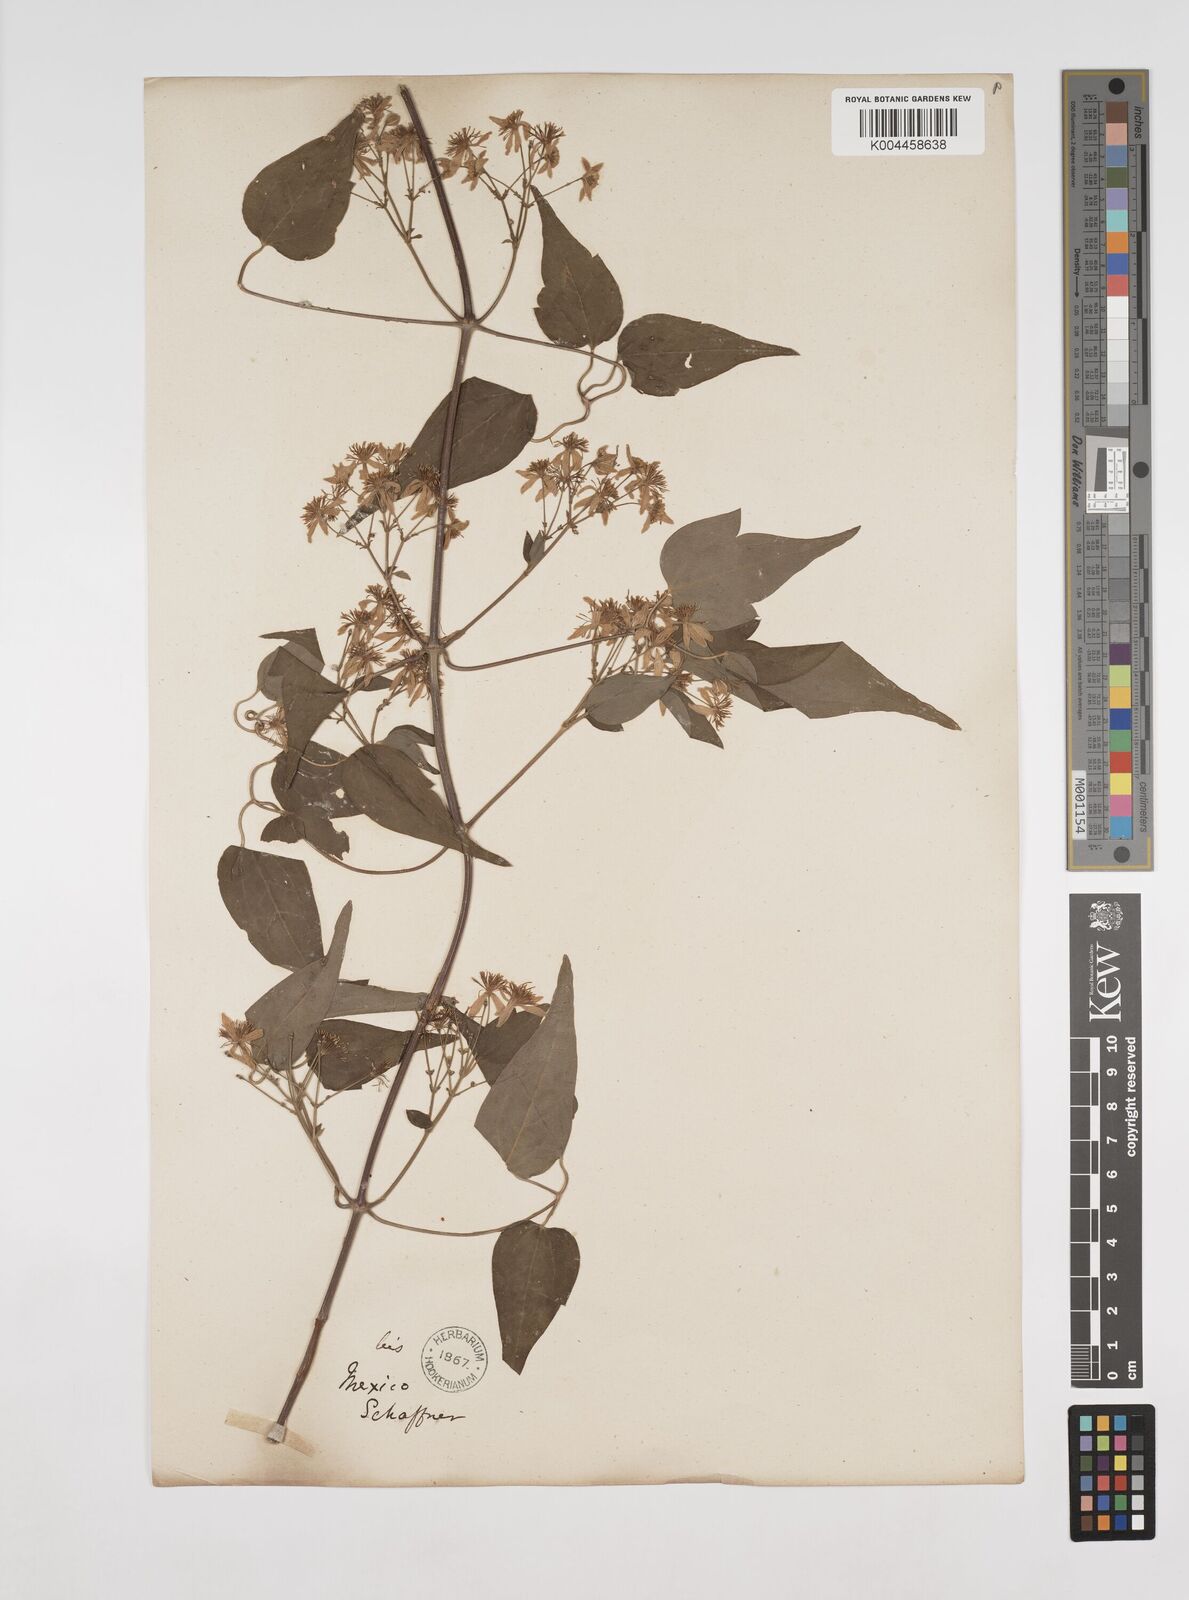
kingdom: Plantae
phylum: Tracheophyta
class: Magnoliopsida
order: Ranunculales
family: Ranunculaceae
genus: Clematis
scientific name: Clematis dioica
